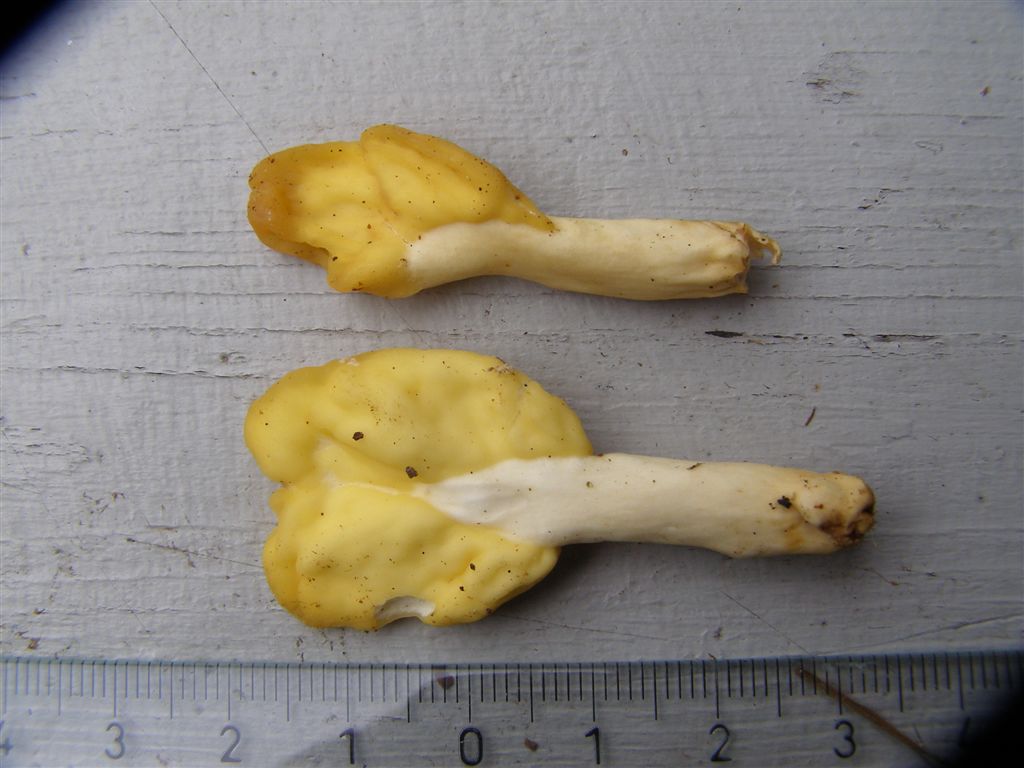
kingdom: Fungi
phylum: Ascomycota
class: Leotiomycetes
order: Rhytismatales
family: Cudoniaceae
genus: Spathularia
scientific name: Spathularia flavida
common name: gul spatelsvamp
